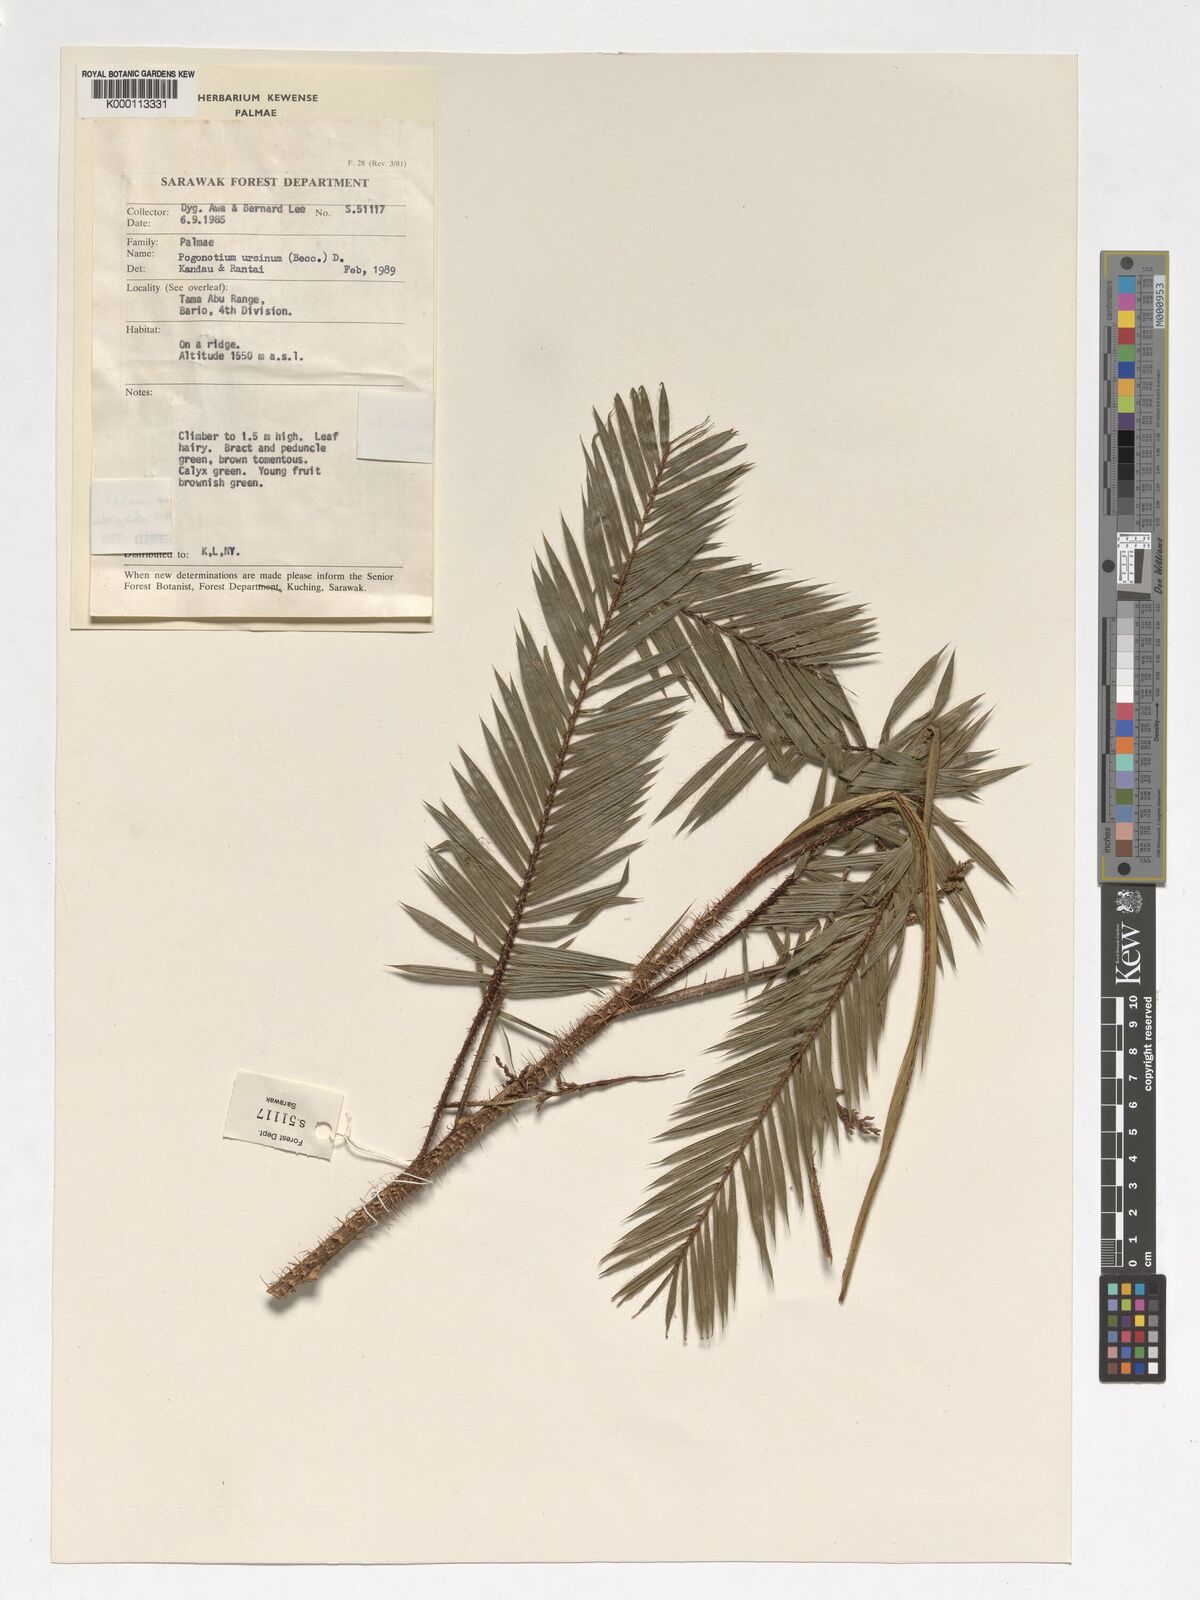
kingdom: Plantae
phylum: Tracheophyta
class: Liliopsida
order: Arecales
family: Arecaceae
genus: Calamus
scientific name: Calamus gibbsianus
